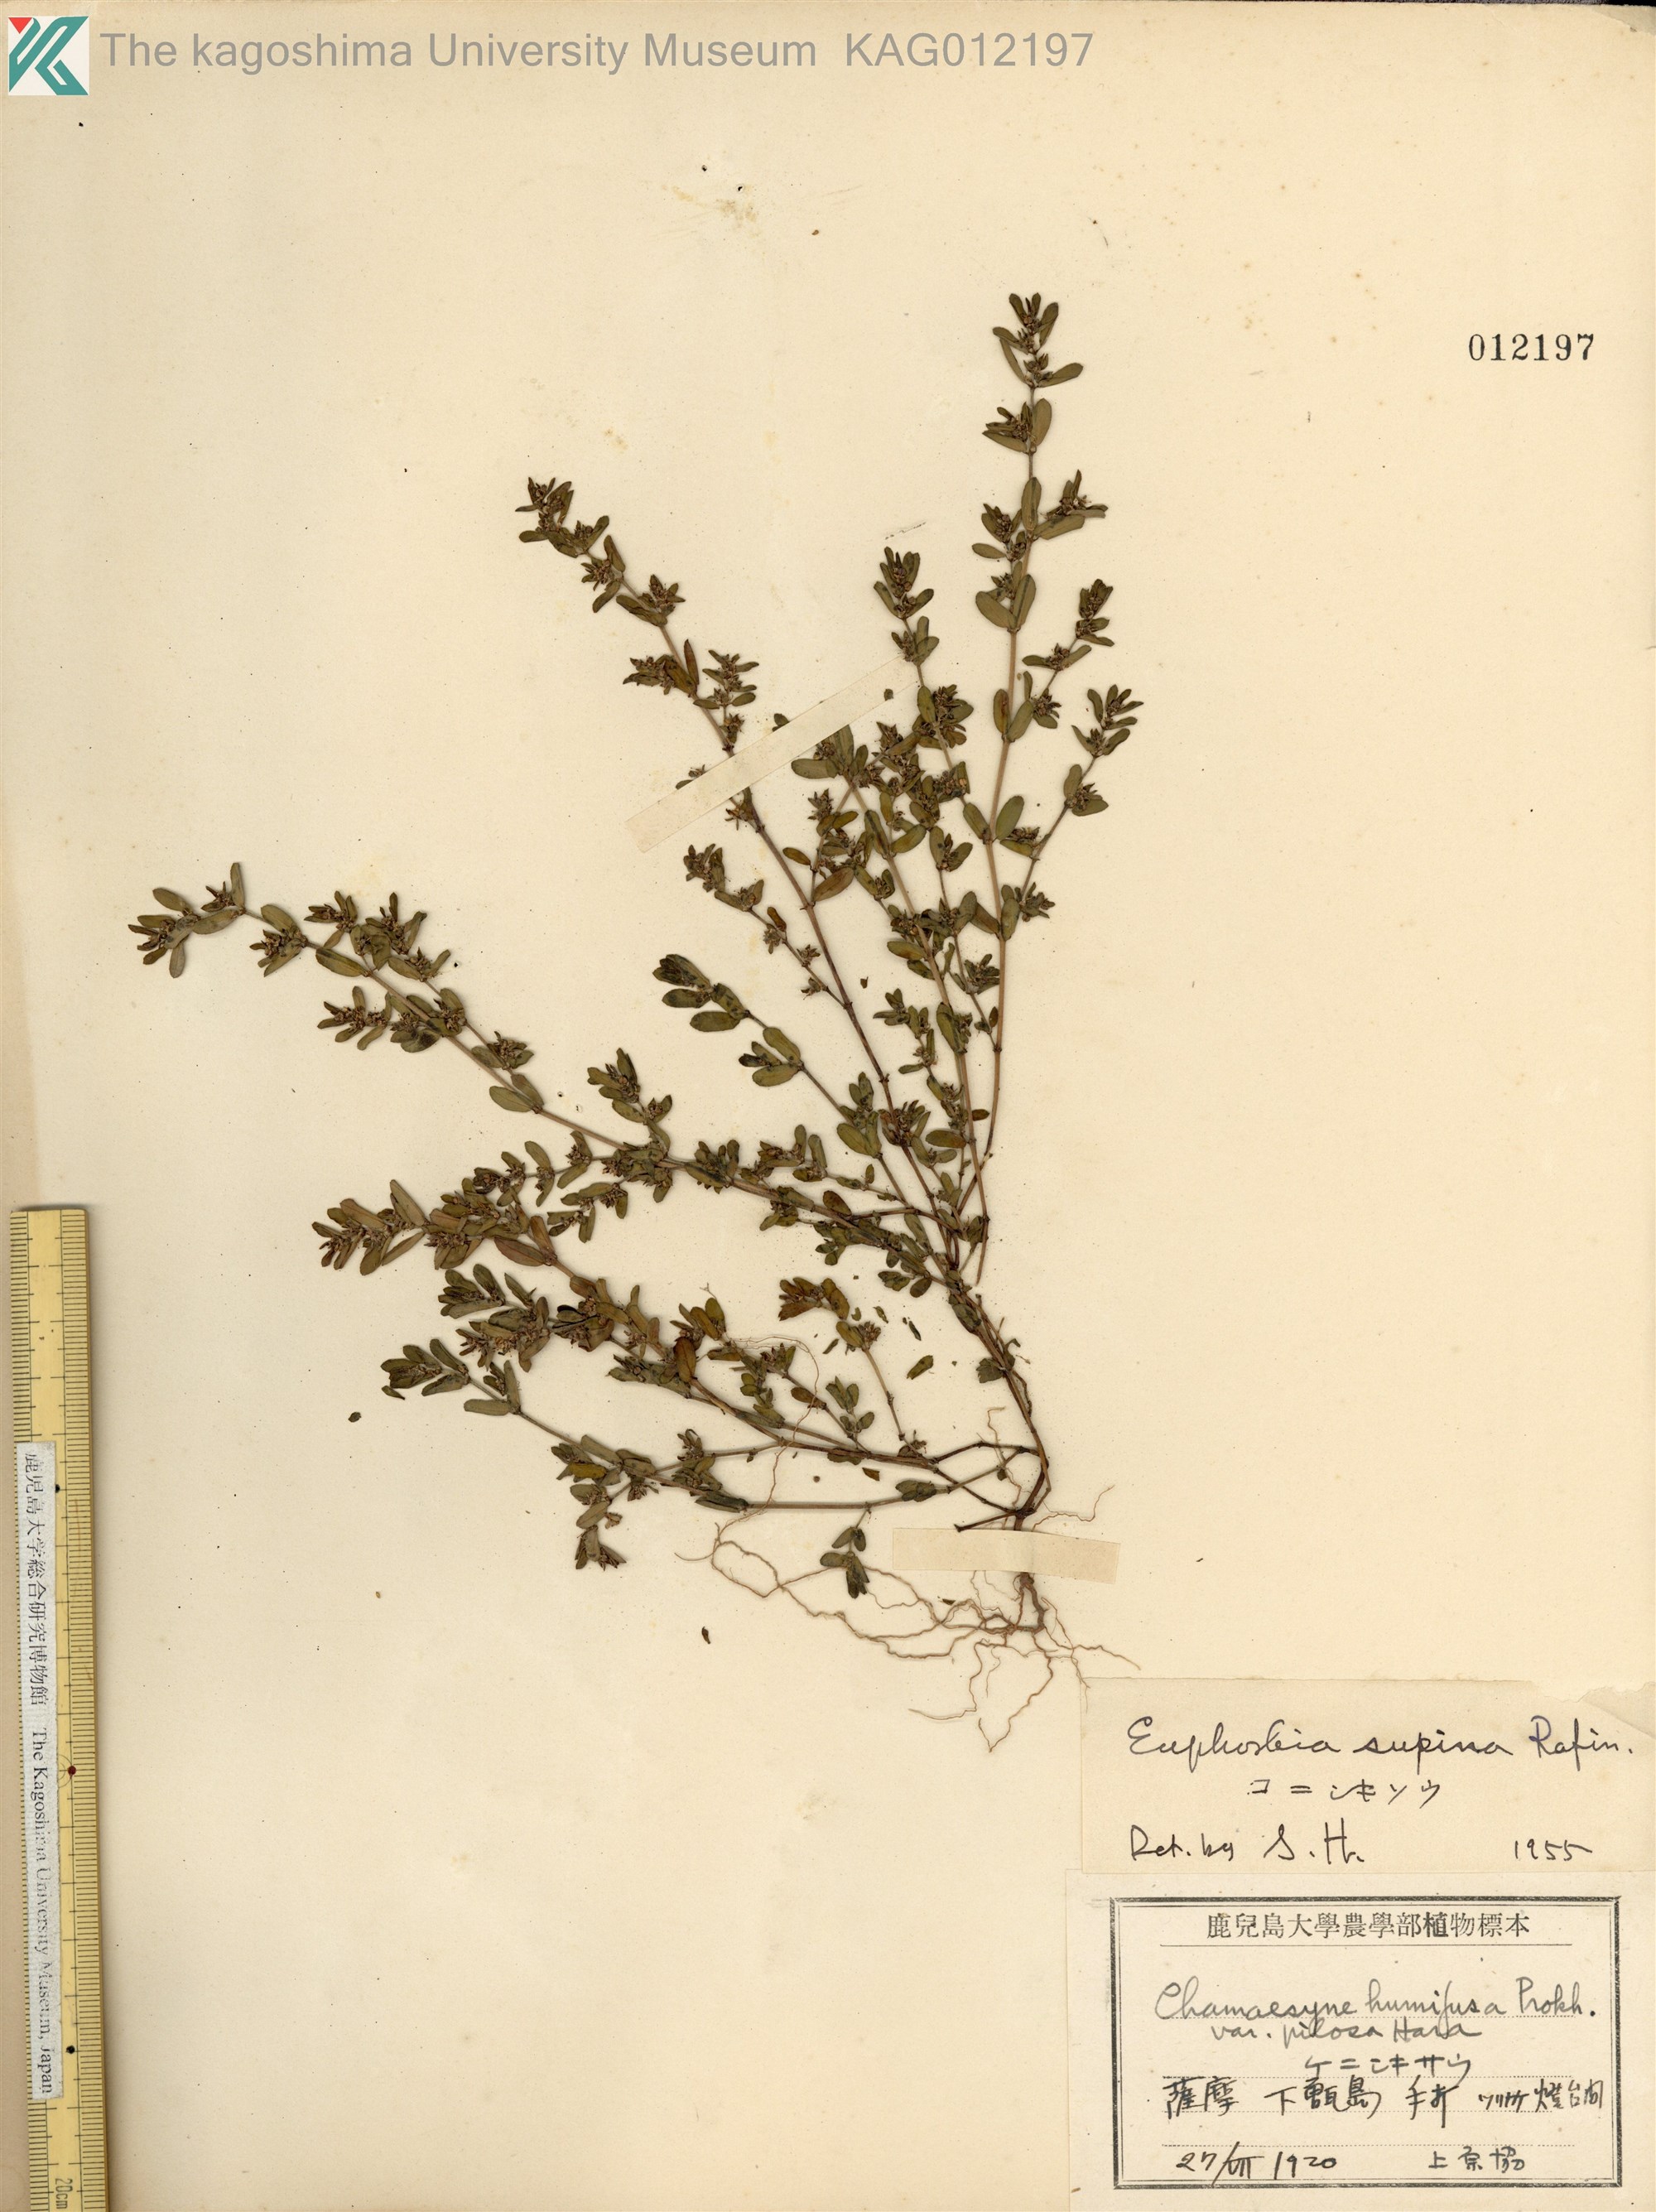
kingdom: Plantae
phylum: Tracheophyta
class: Magnoliopsida
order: Malpighiales
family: Euphorbiaceae
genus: Euphorbia
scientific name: Euphorbia maculata
